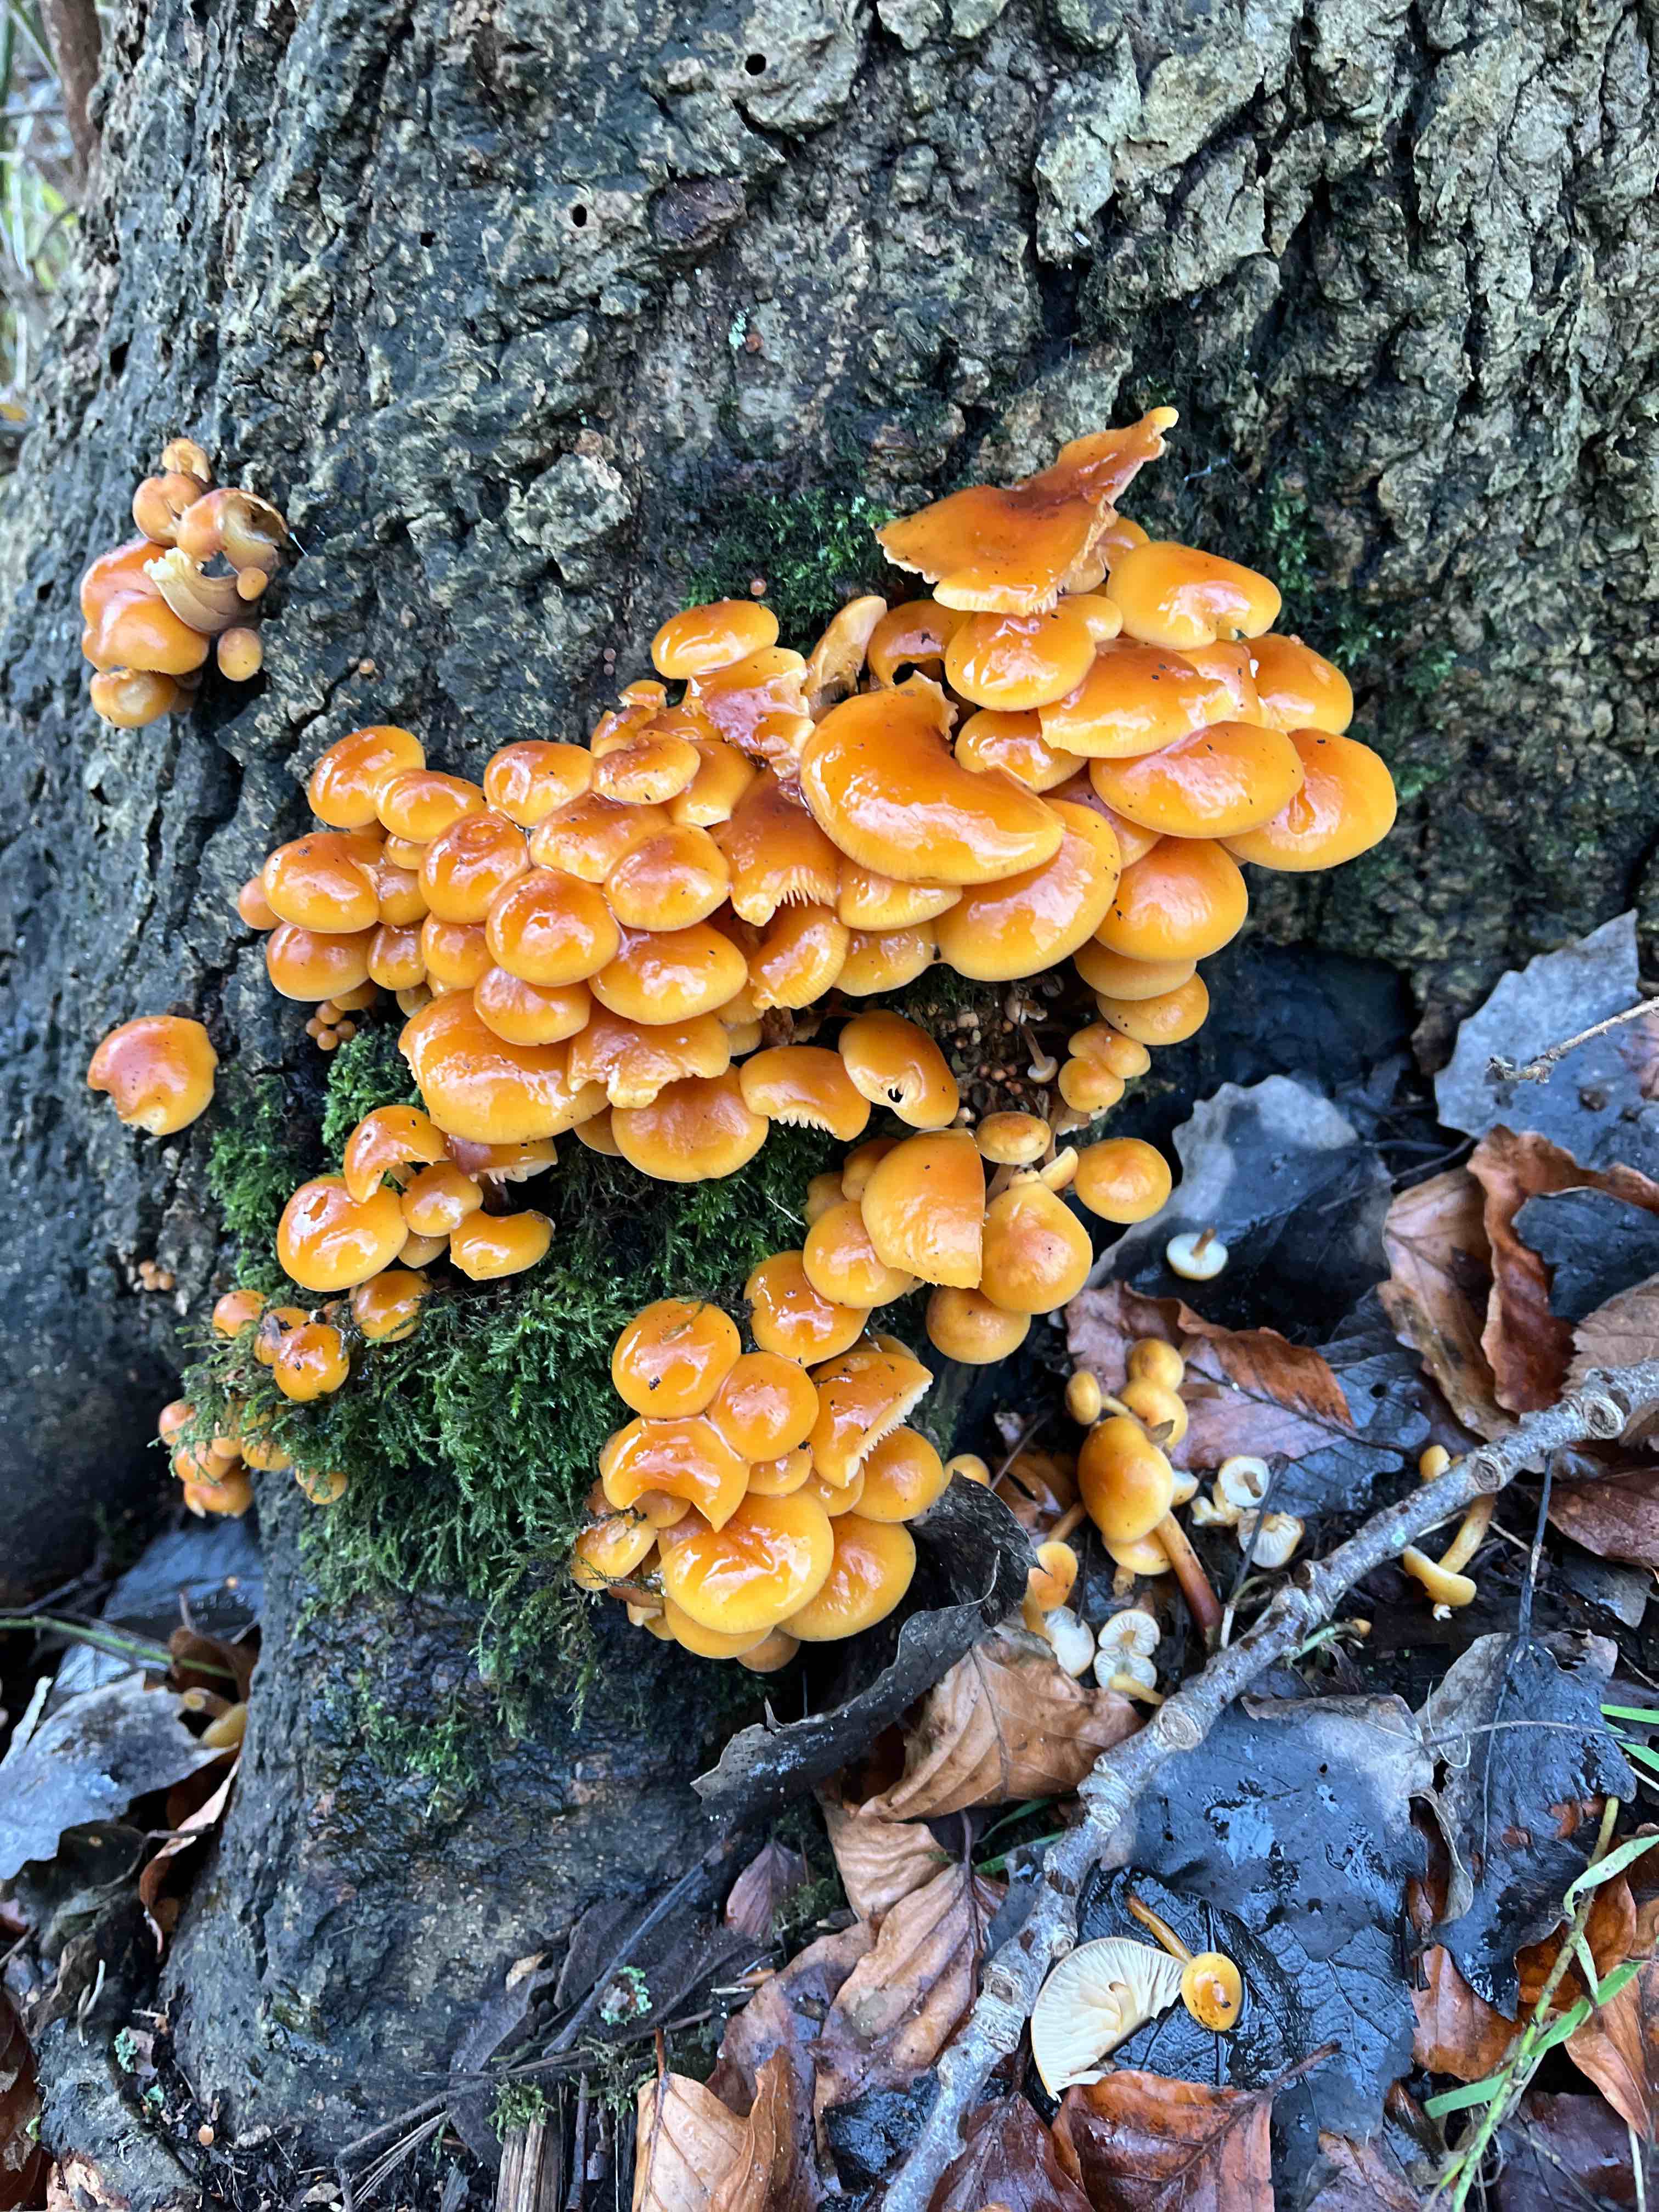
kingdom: Fungi
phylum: Basidiomycota
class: Agaricomycetes
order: Agaricales
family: Physalacriaceae
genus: Flammulina
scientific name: Flammulina velutipes
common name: gul fløjlsfod
